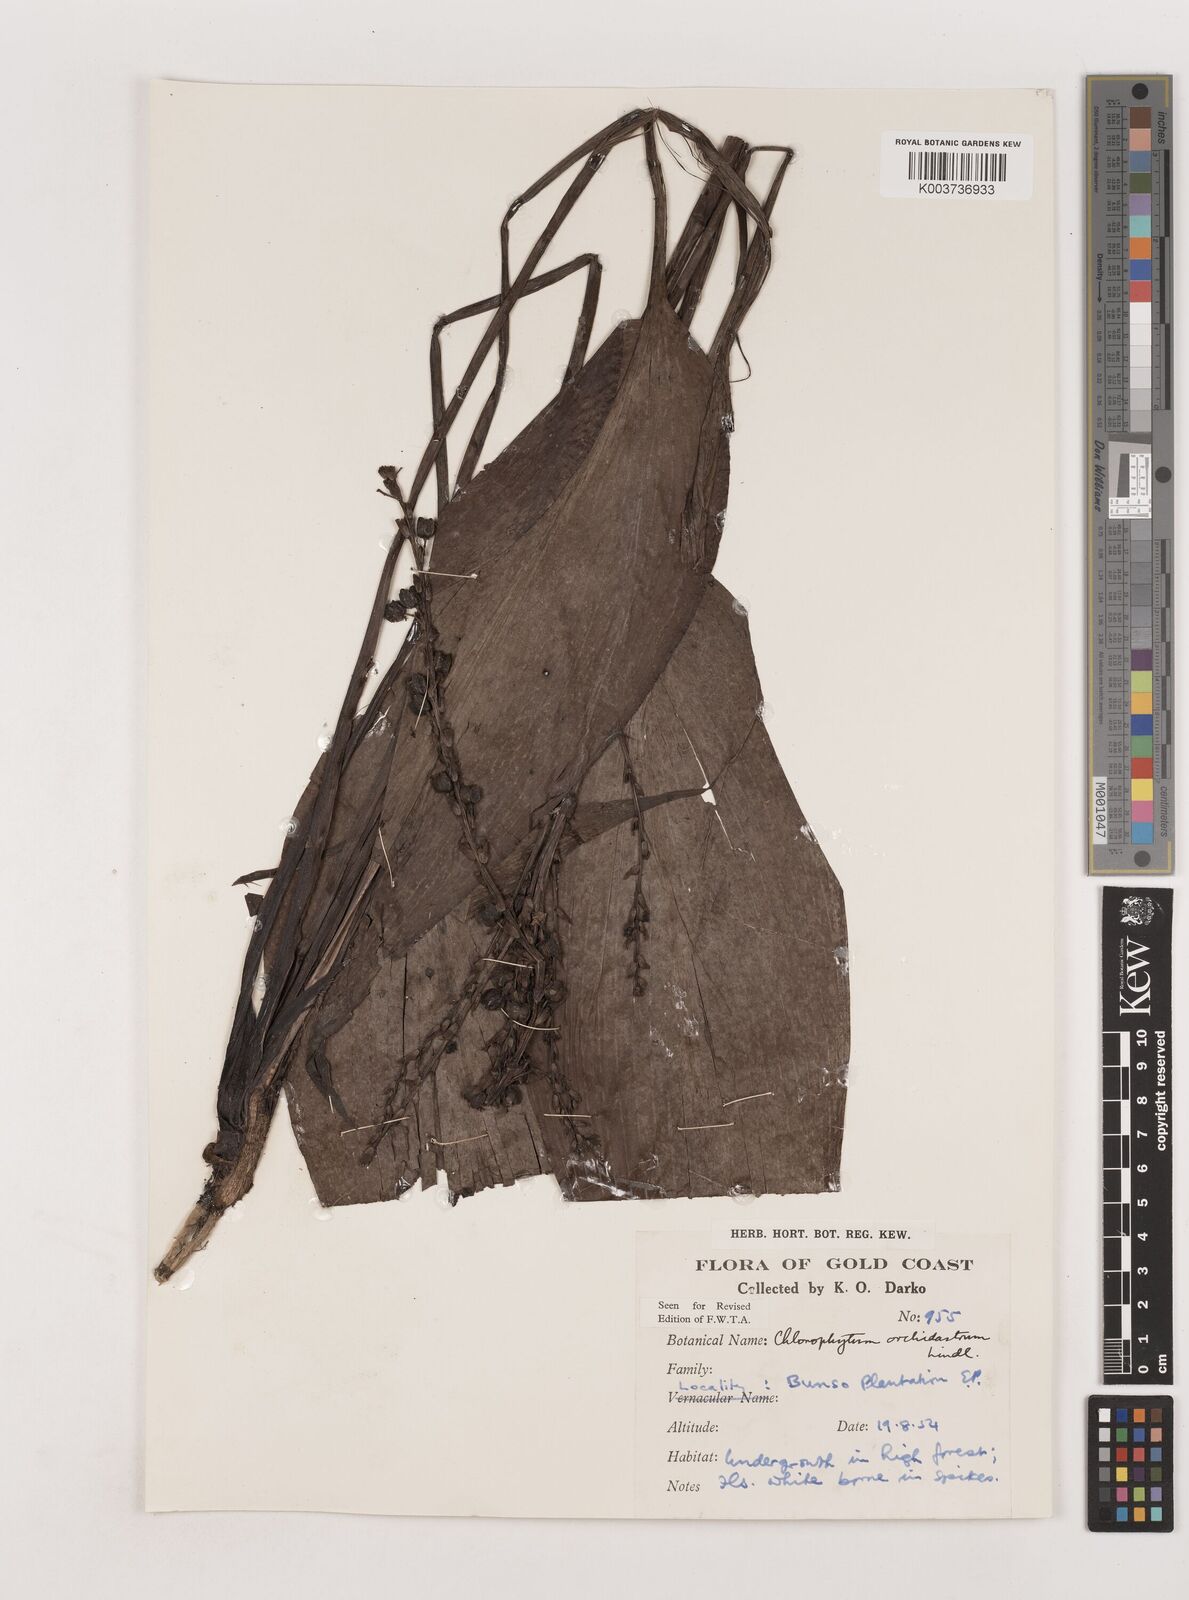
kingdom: Plantae
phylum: Tracheophyta
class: Liliopsida
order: Asparagales
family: Asparagaceae
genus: Chlorophytum
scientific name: Chlorophytum orchidastrum
